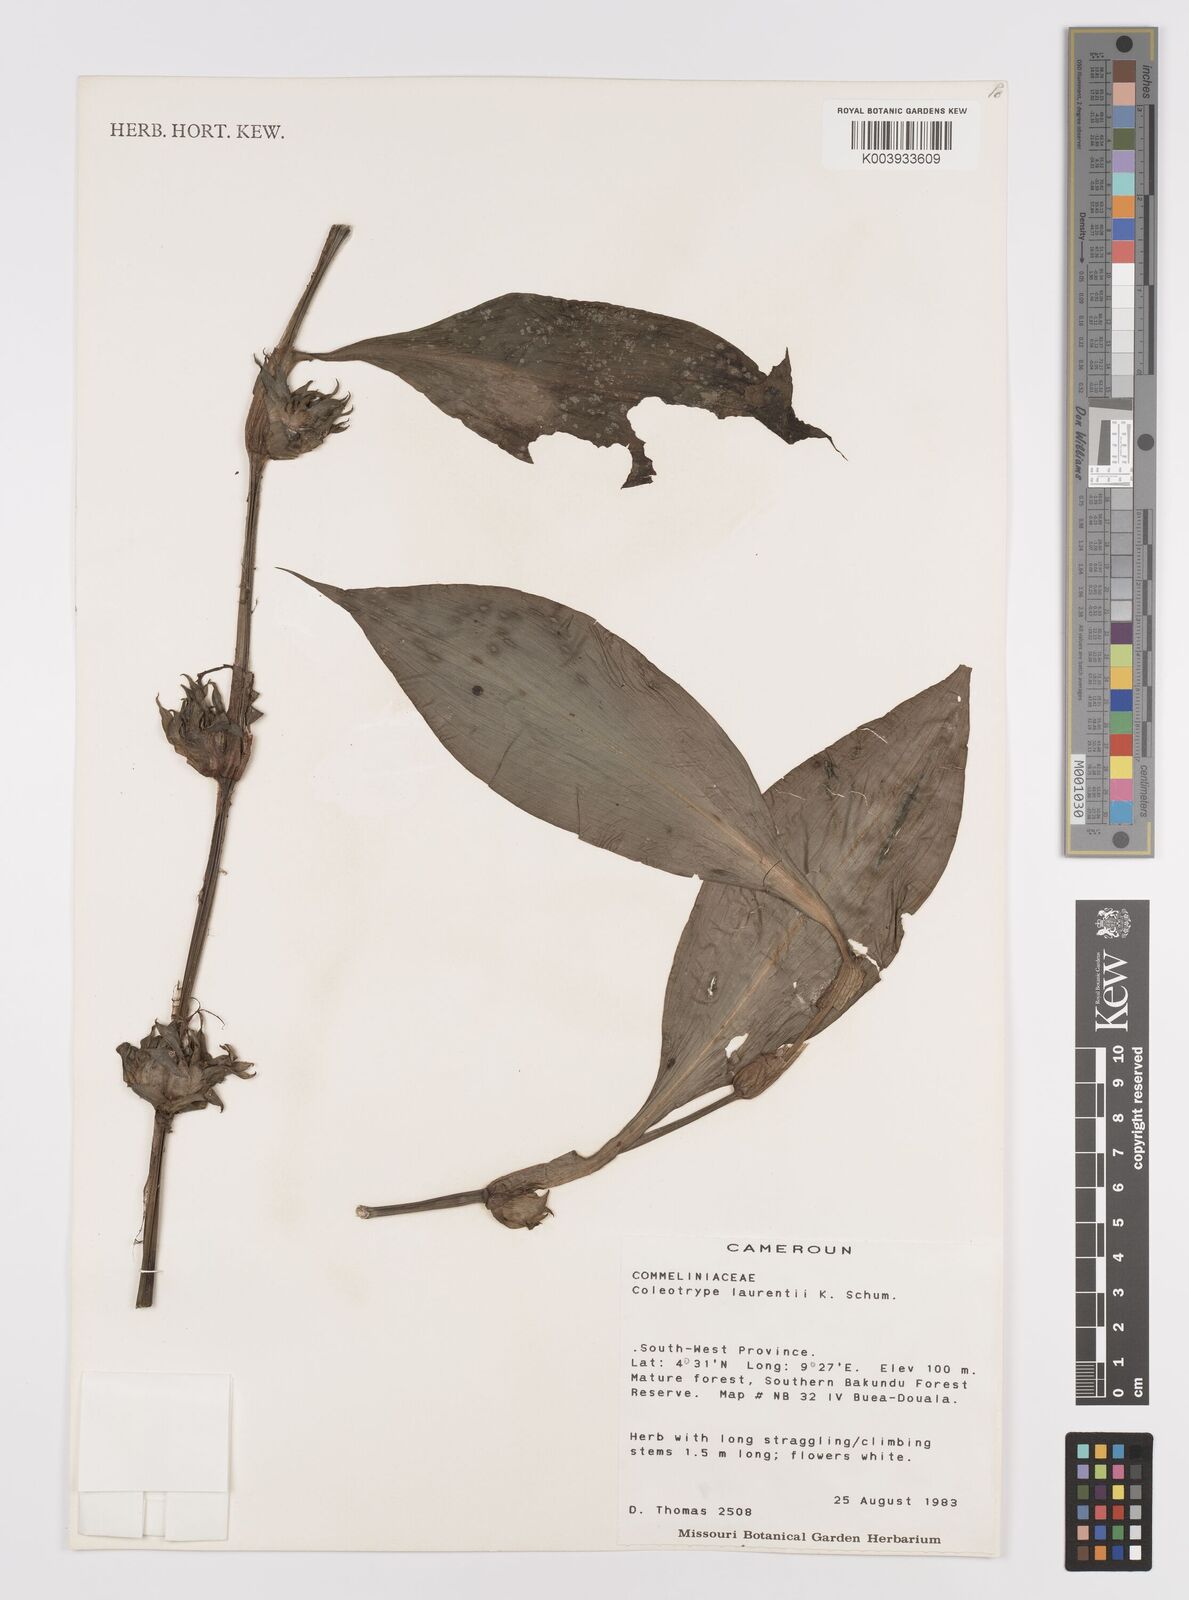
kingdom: Plantae
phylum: Tracheophyta
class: Liliopsida
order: Commelinales
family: Commelinaceae
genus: Coleotrype
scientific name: Coleotrype laurentii
